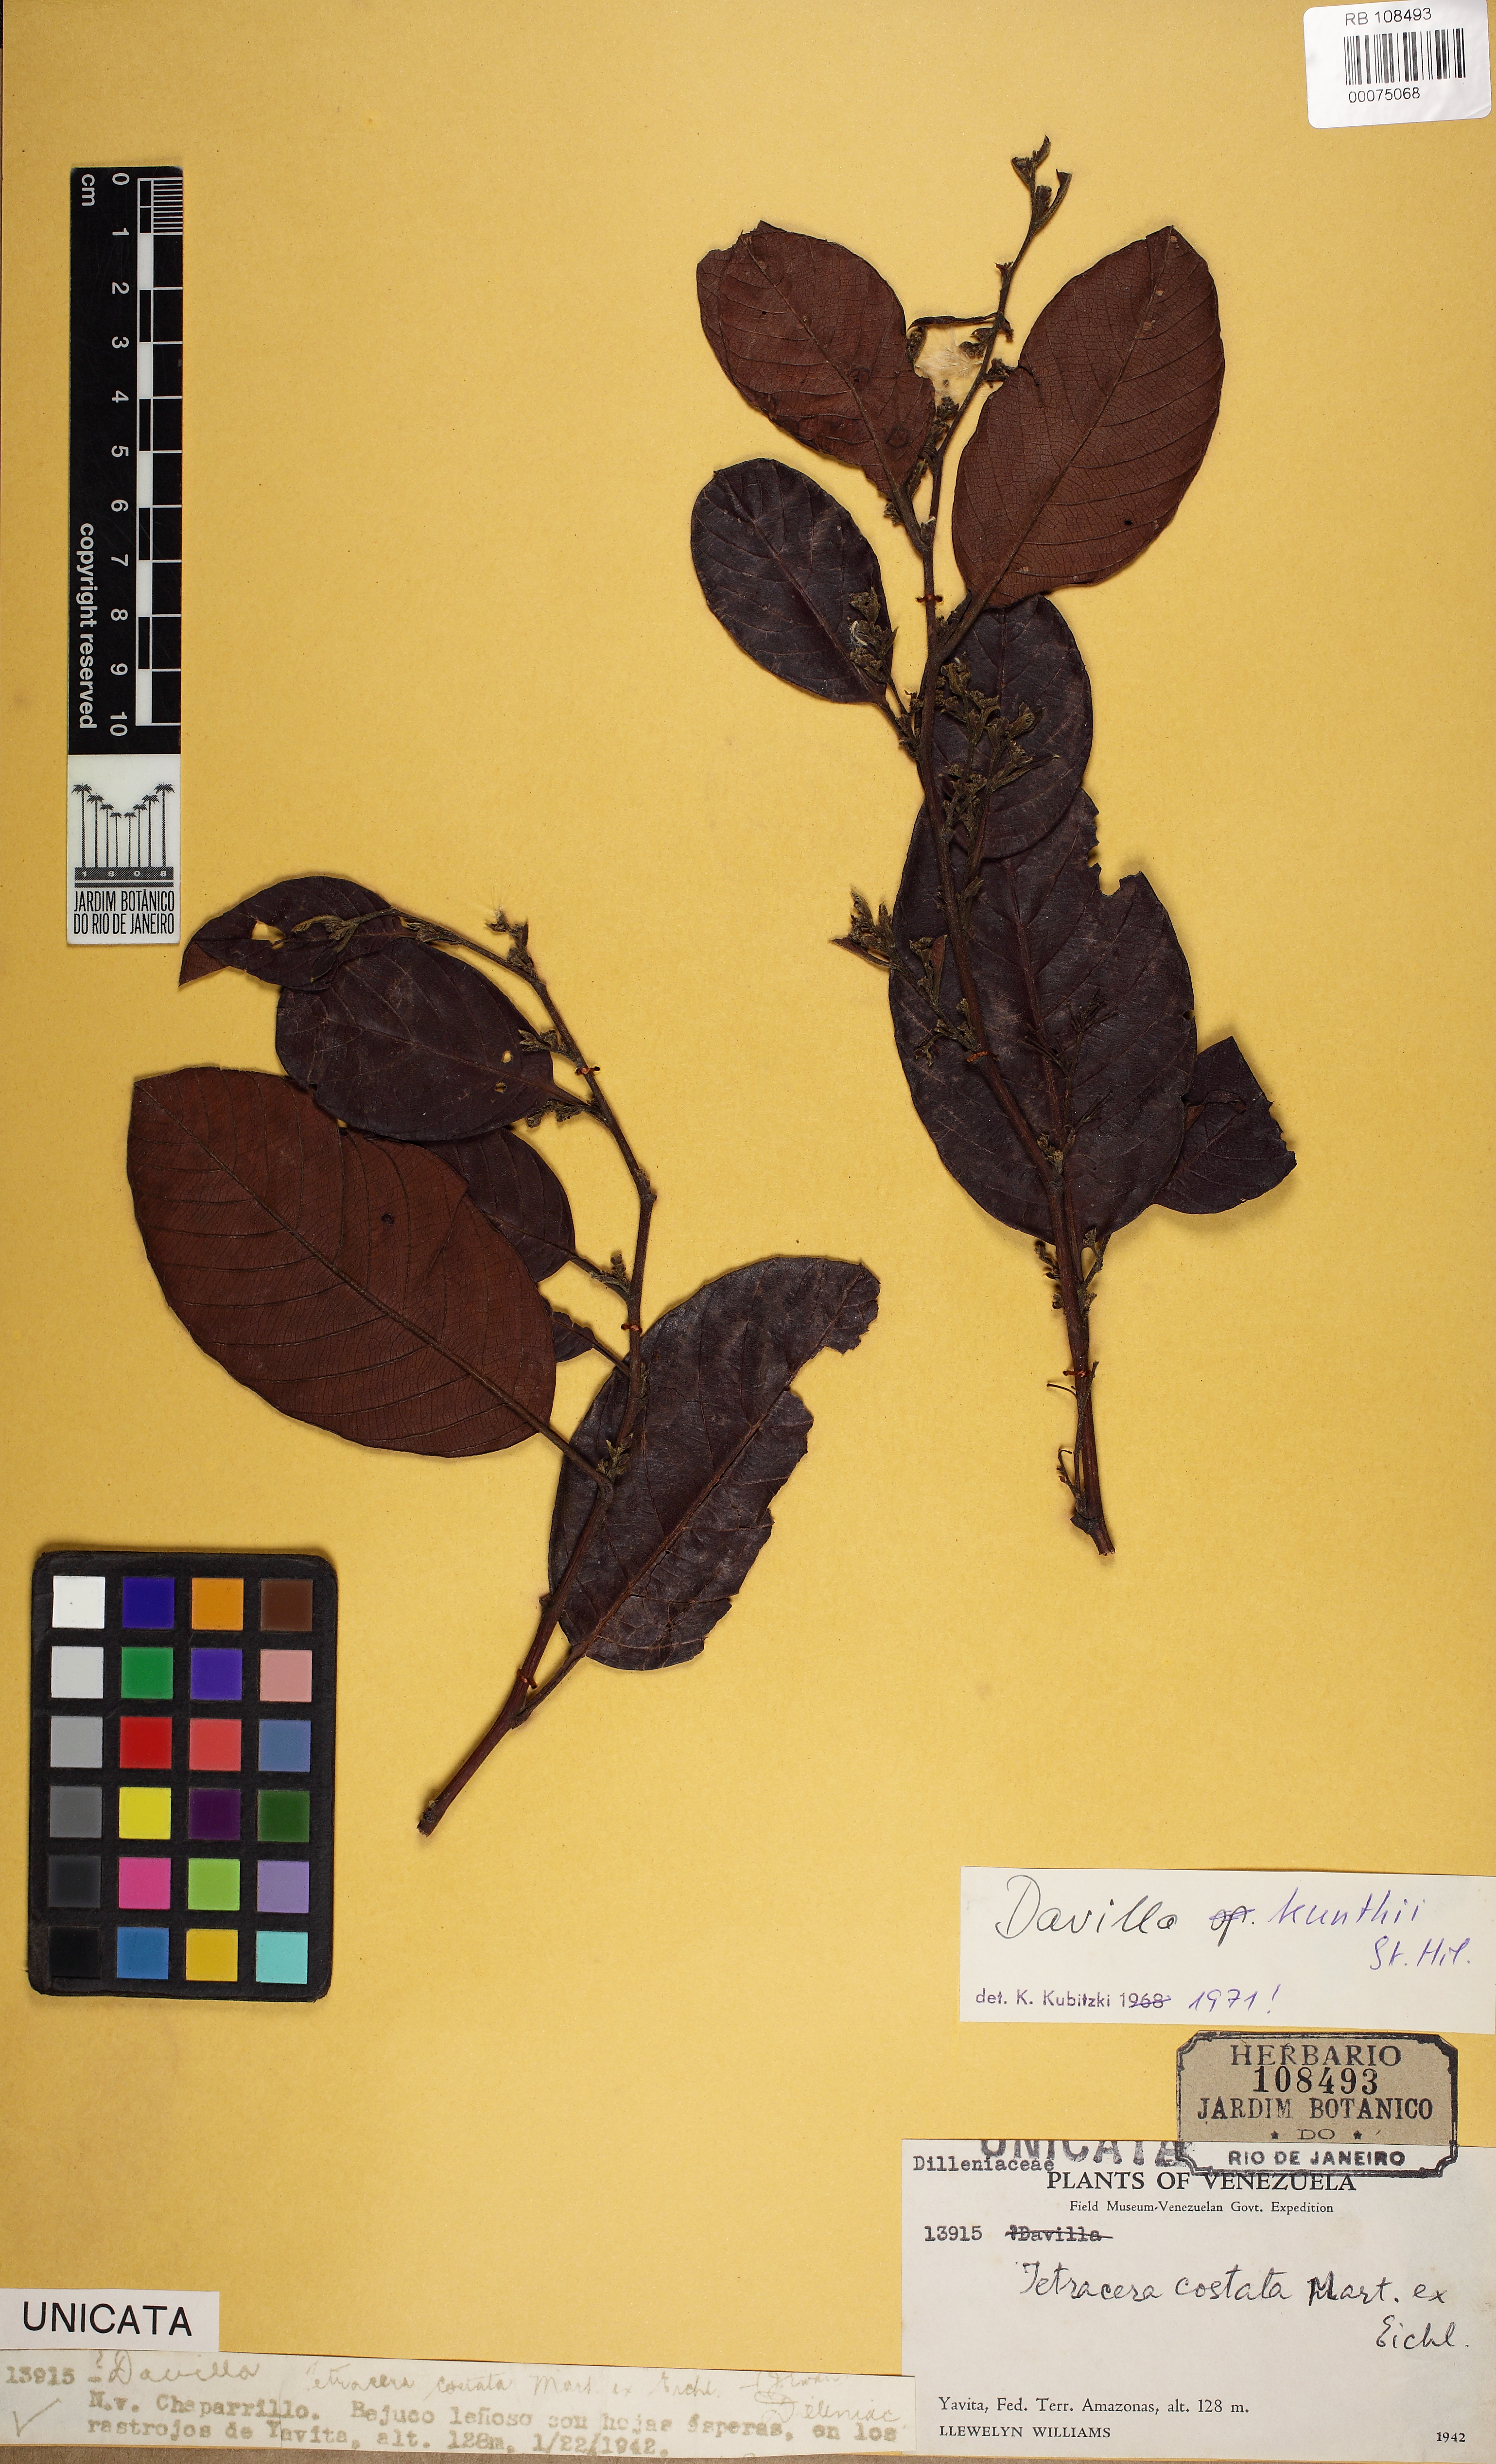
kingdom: Plantae
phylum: Tracheophyta
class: Magnoliopsida
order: Dilleniales
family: Dilleniaceae
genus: Davilla
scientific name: Davilla kunthii
